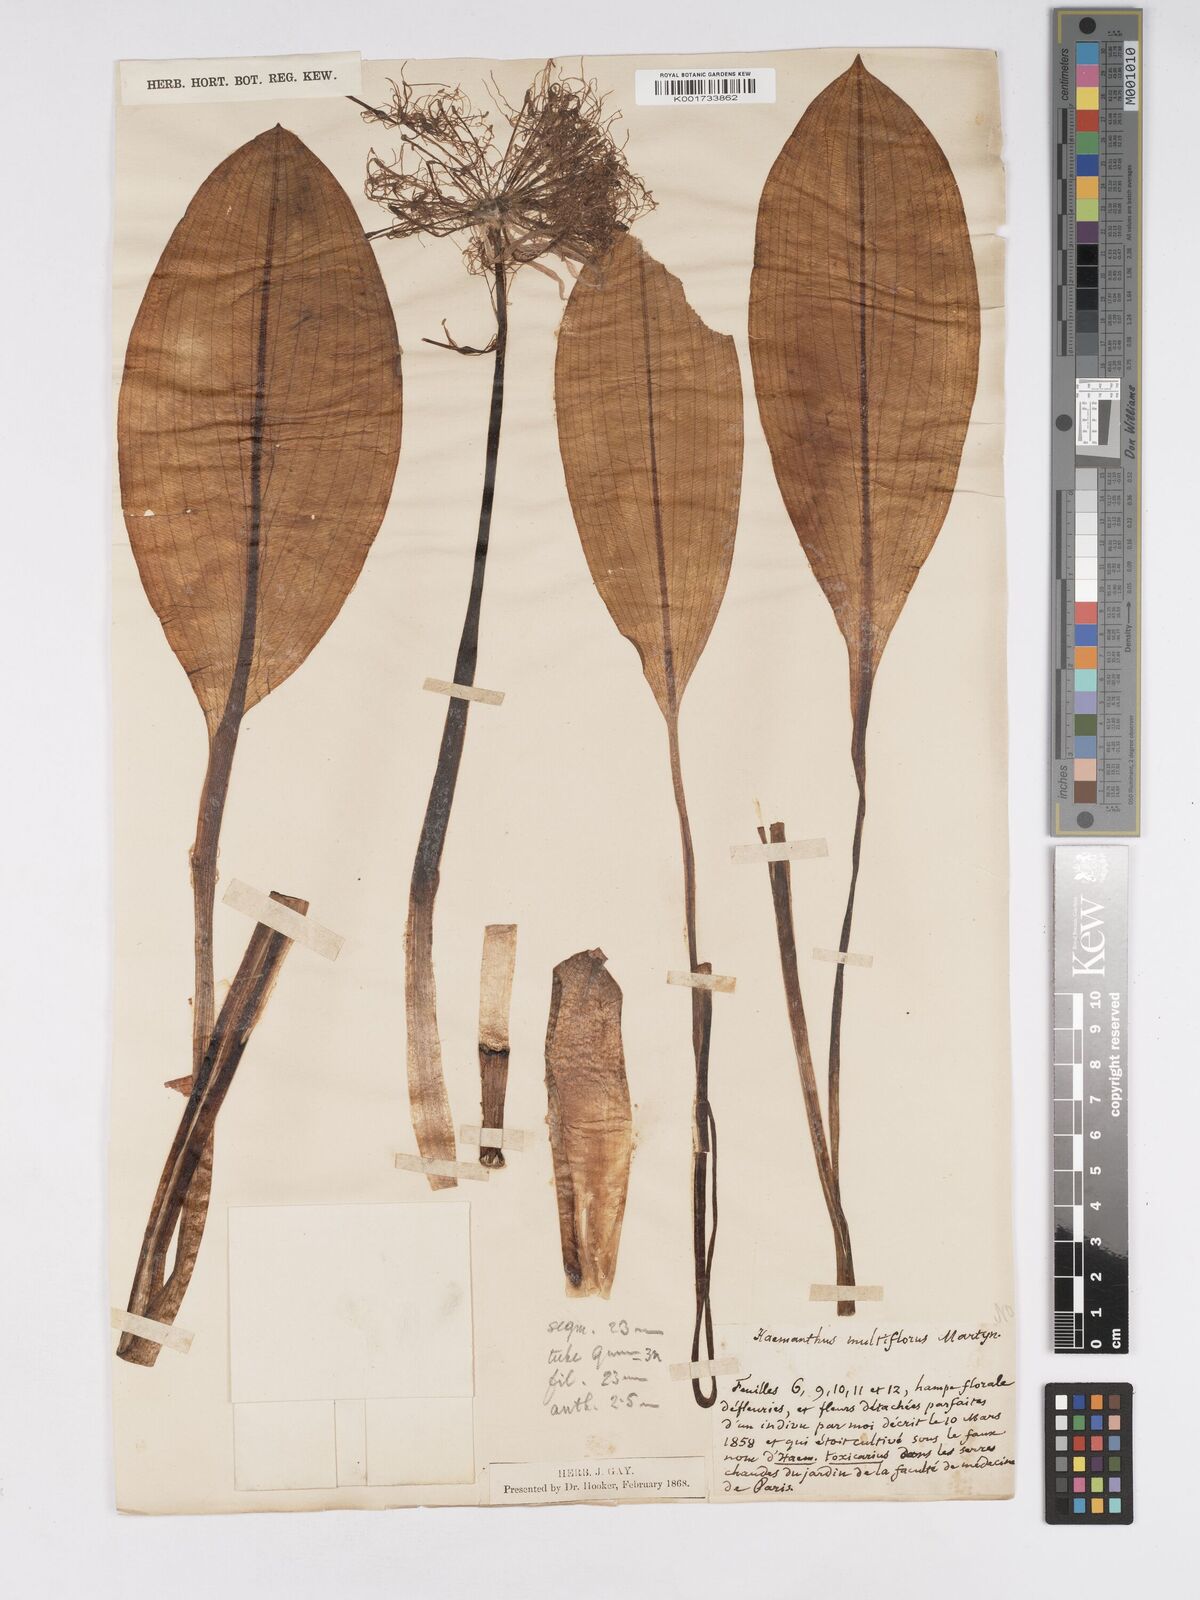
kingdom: Plantae
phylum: Tracheophyta
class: Liliopsida
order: Asparagales
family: Amaryllidaceae
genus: Scadoxus
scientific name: Scadoxus multiflorus
